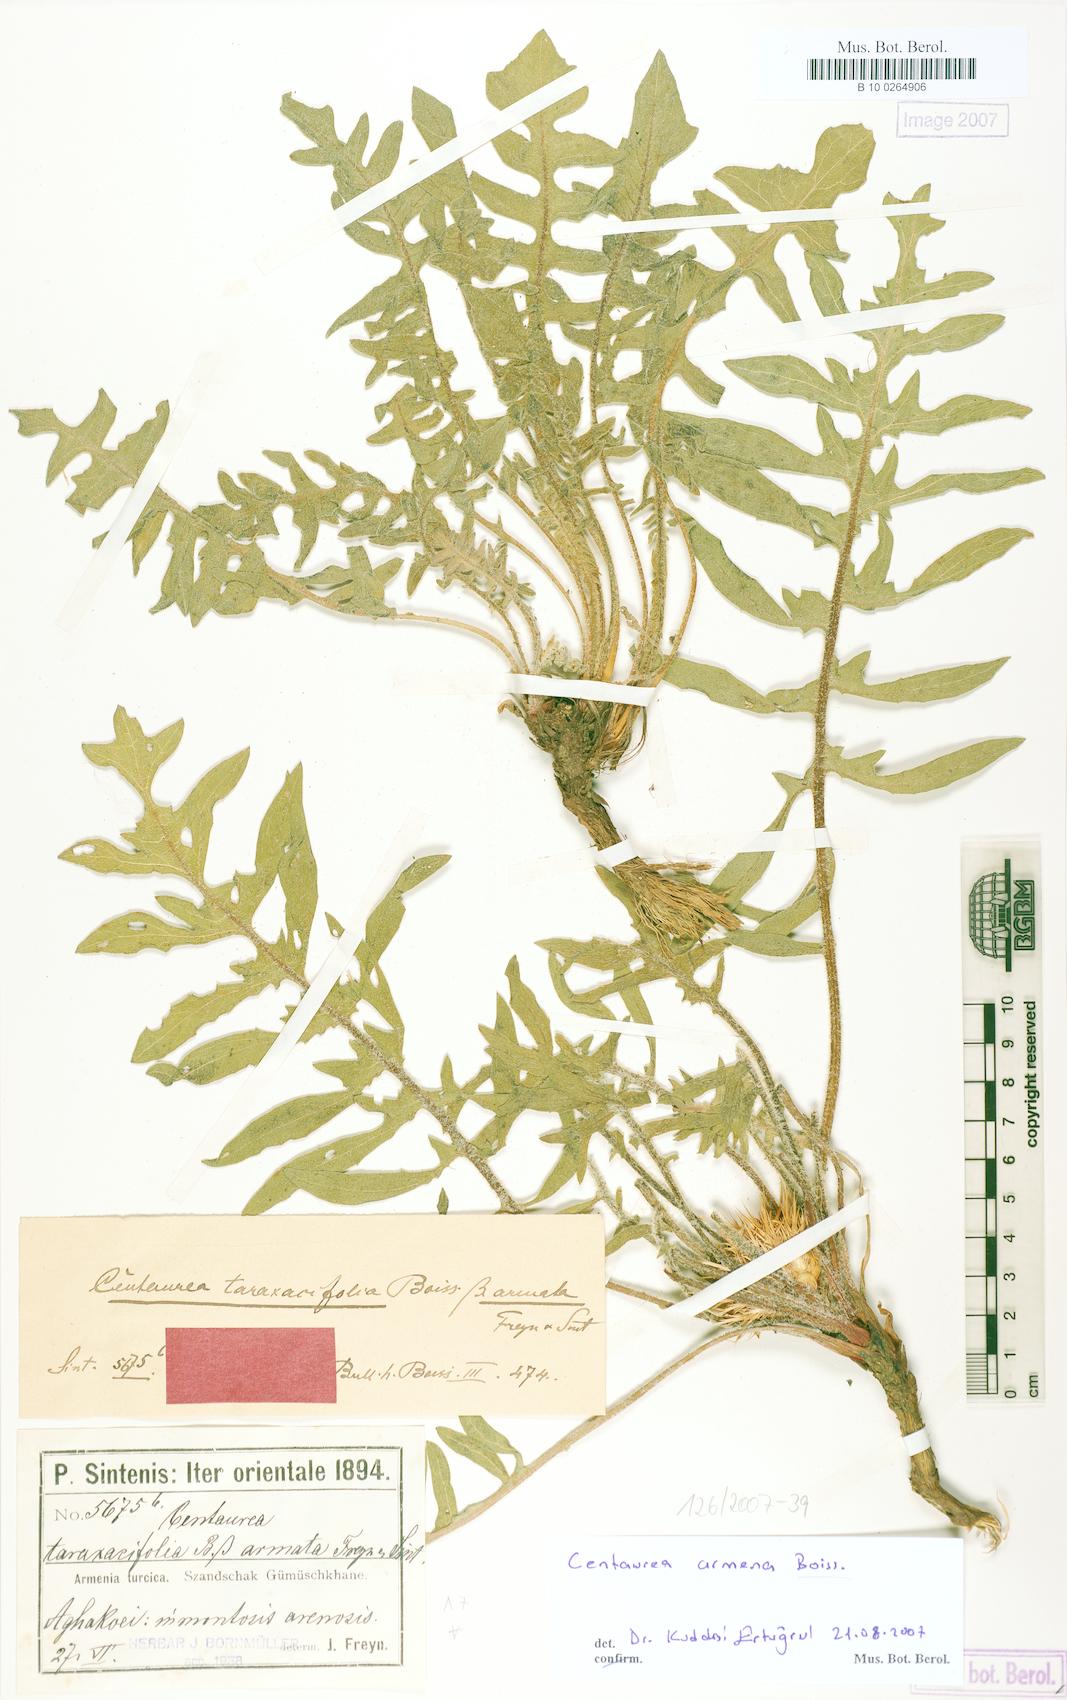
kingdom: Plantae
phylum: Tracheophyta
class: Magnoliopsida
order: Asterales
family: Asteraceae
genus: Centaurea
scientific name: Centaurea armena
